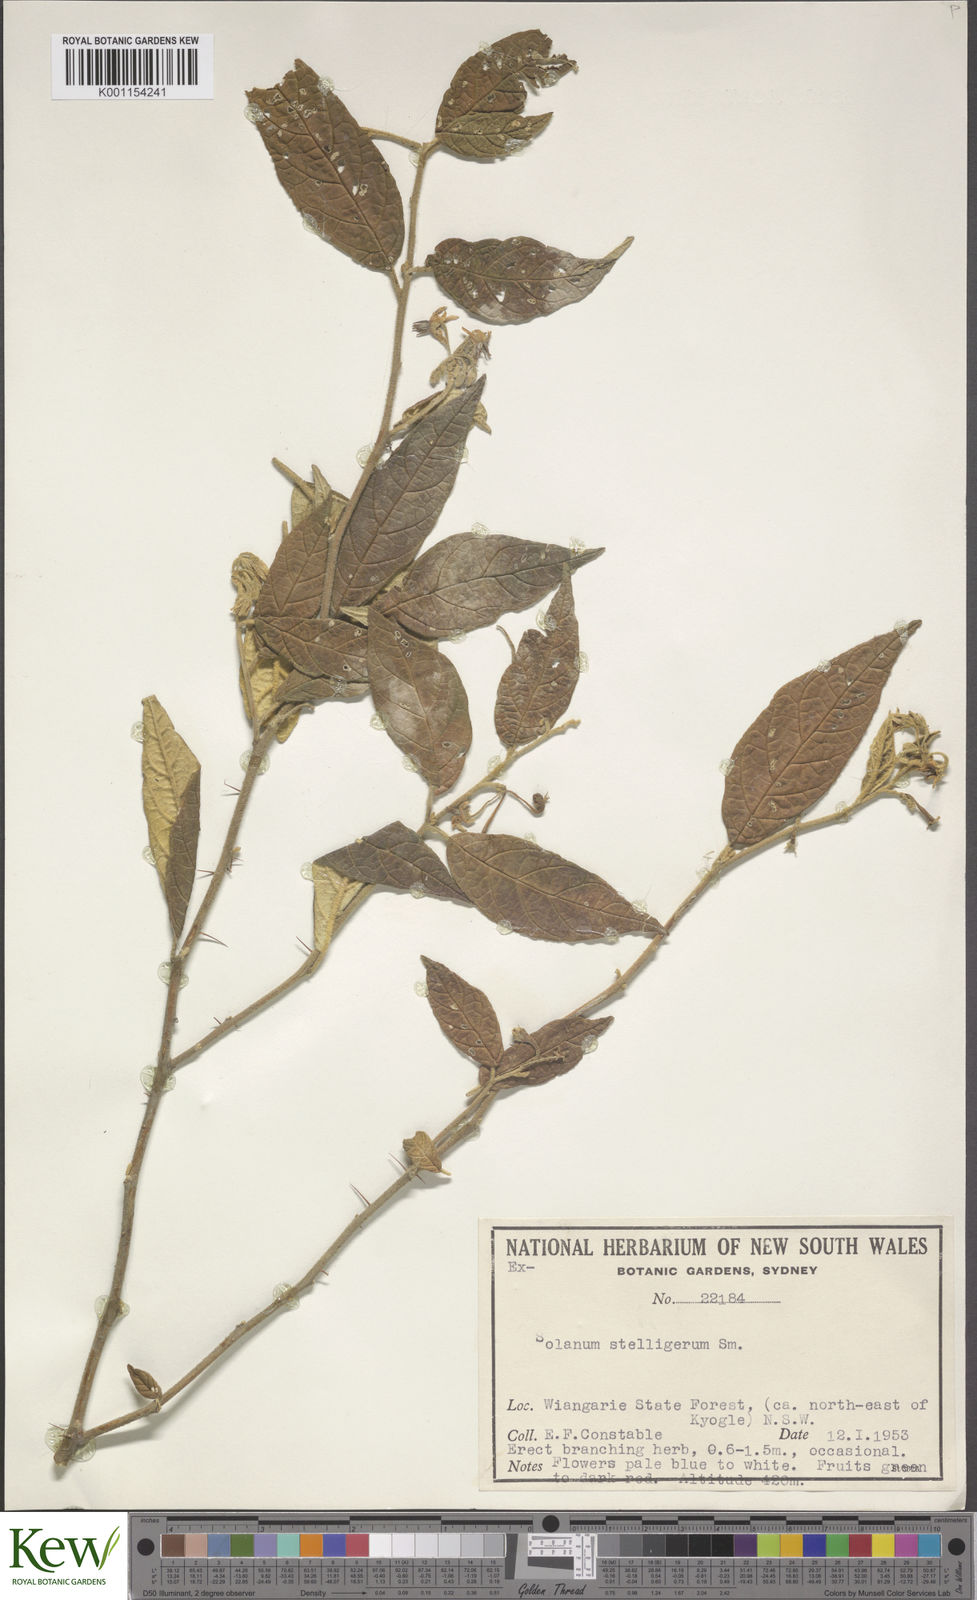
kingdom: Plantae
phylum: Tracheophyta
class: Magnoliopsida
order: Solanales
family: Solanaceae
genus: Solanum
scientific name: Solanum stelligerum
